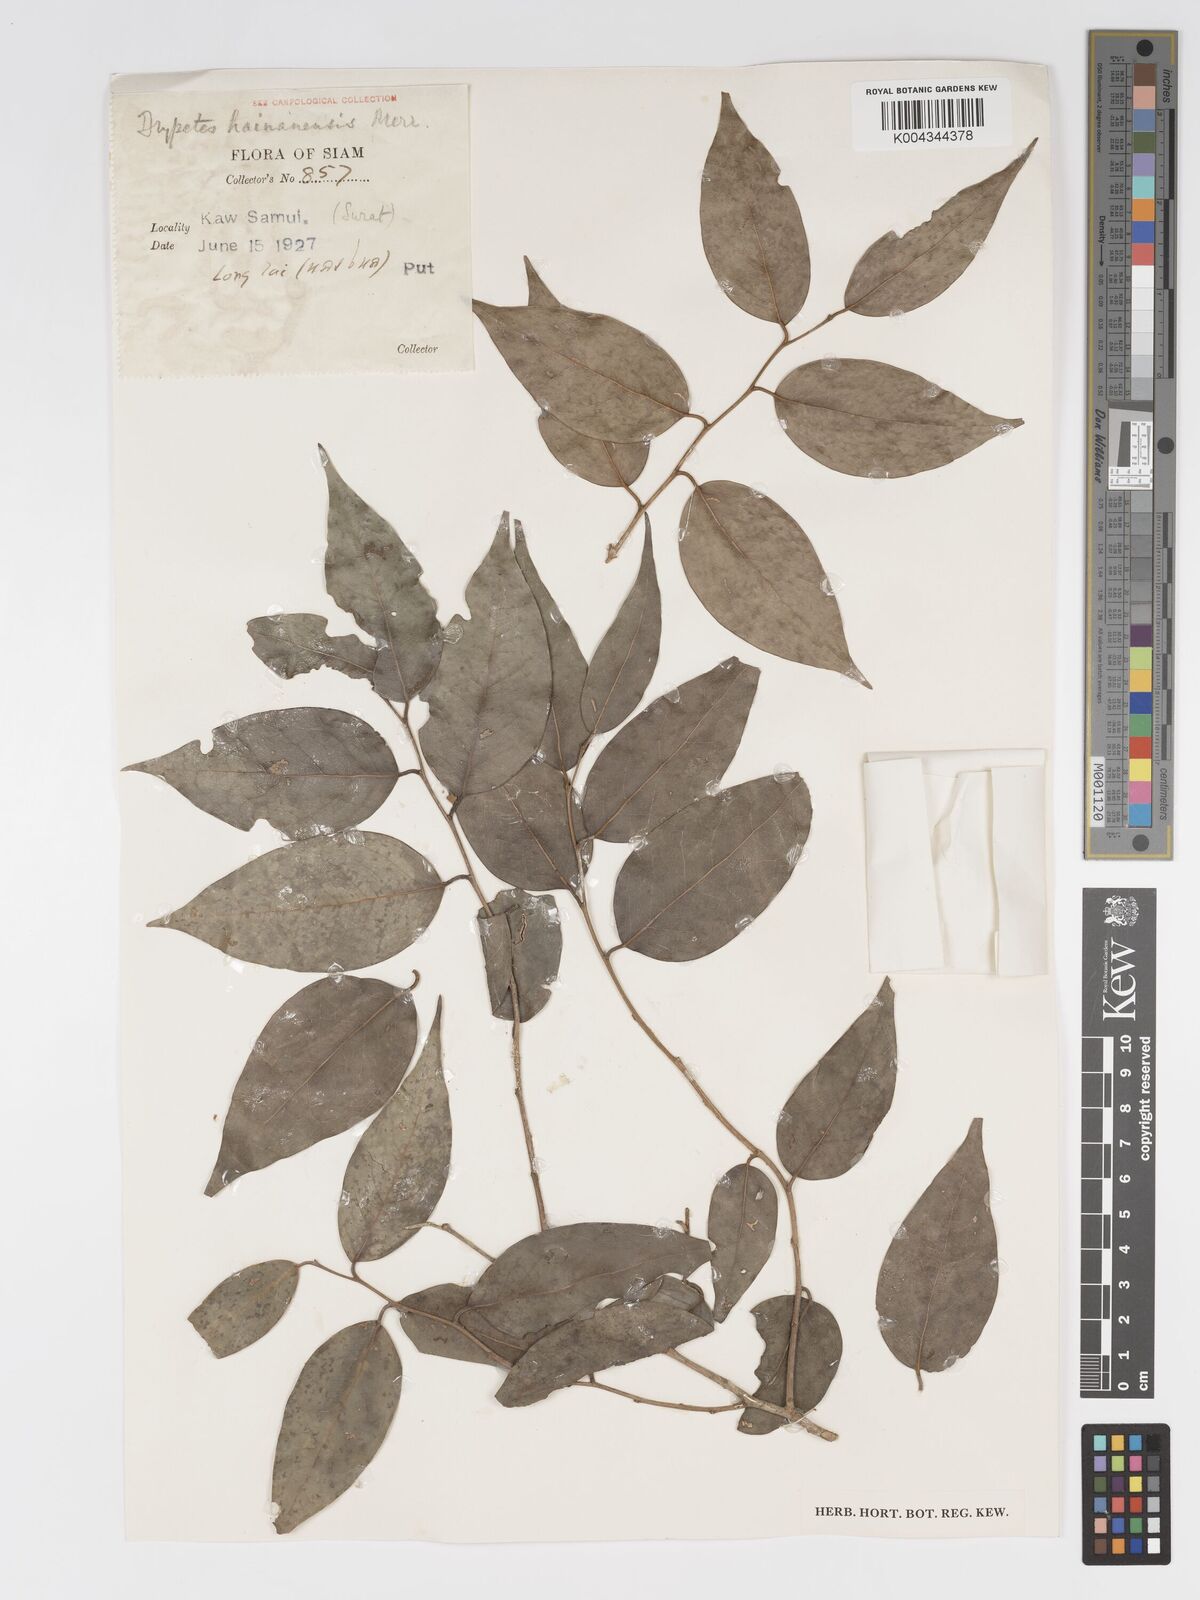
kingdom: Plantae
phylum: Tracheophyta
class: Magnoliopsida
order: Malpighiales
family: Putranjivaceae
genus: Drypetes
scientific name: Drypetes hainanensis
